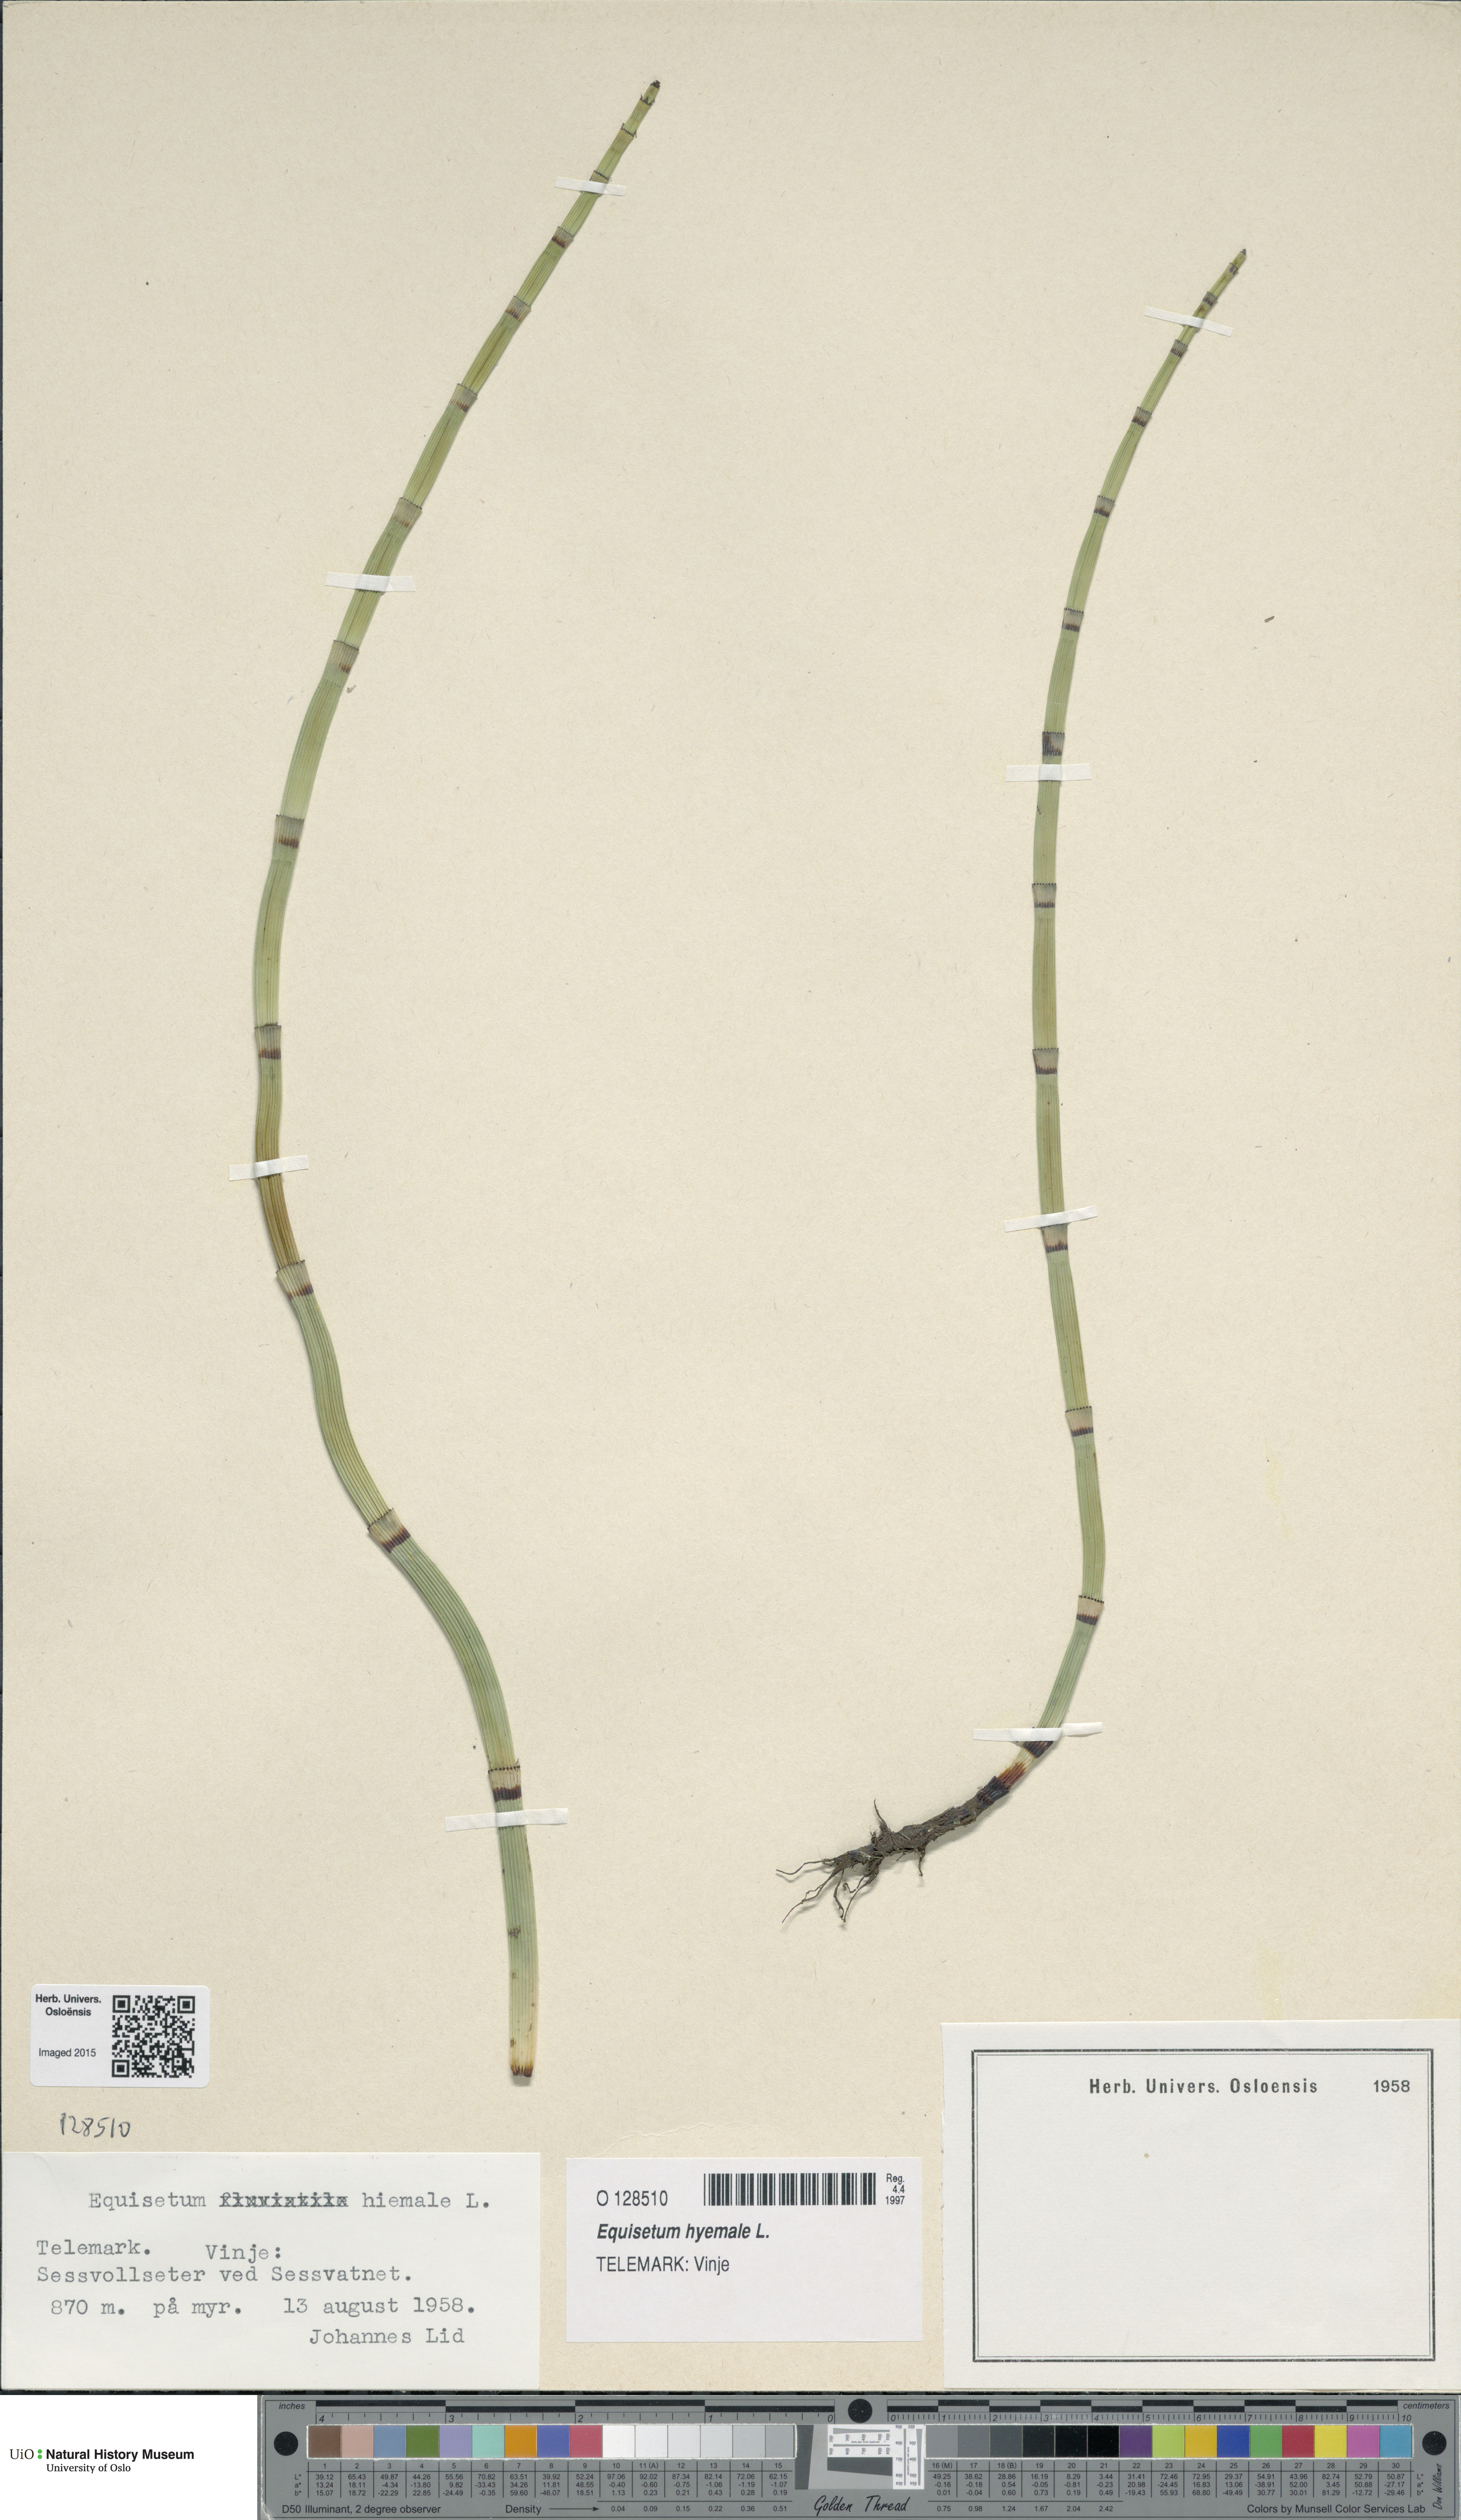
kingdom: Plantae
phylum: Tracheophyta
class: Polypodiopsida
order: Equisetales
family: Equisetaceae
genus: Equisetum
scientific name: Equisetum hyemale
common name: Rough horsetail
